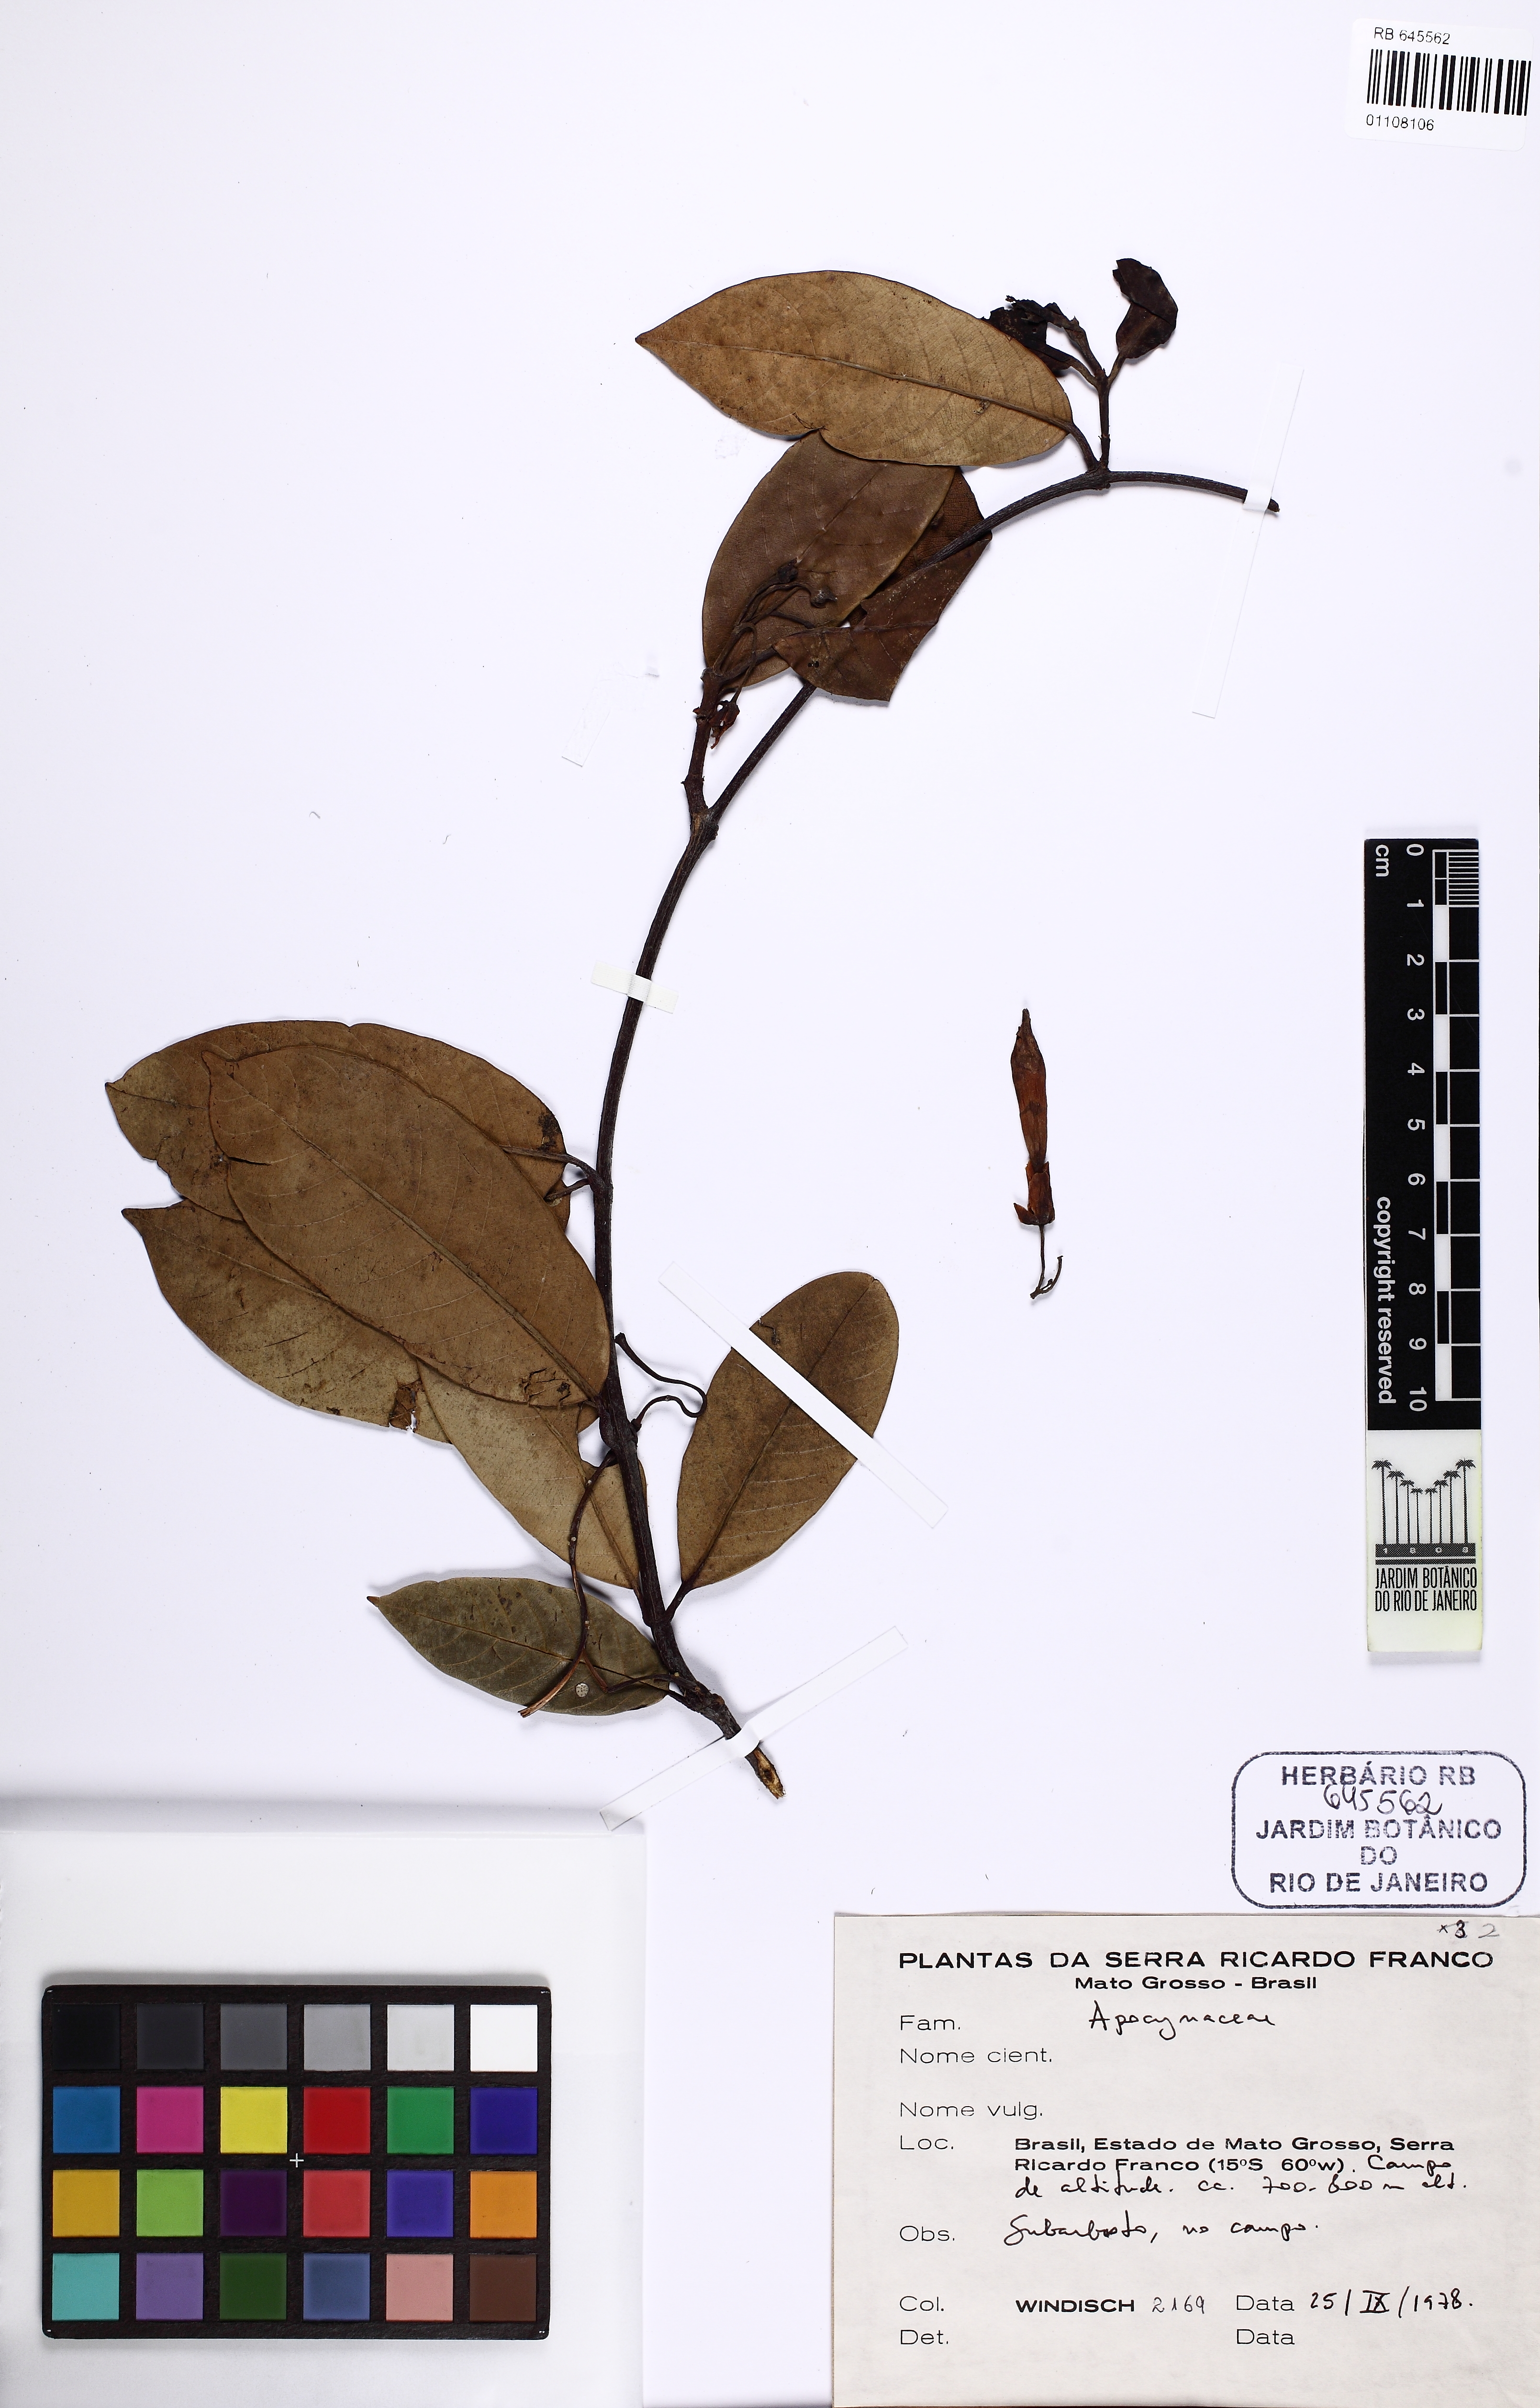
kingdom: Plantae
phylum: Tracheophyta
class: Magnoliopsida
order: Gentianales
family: Apocynaceae
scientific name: Apocynaceae
